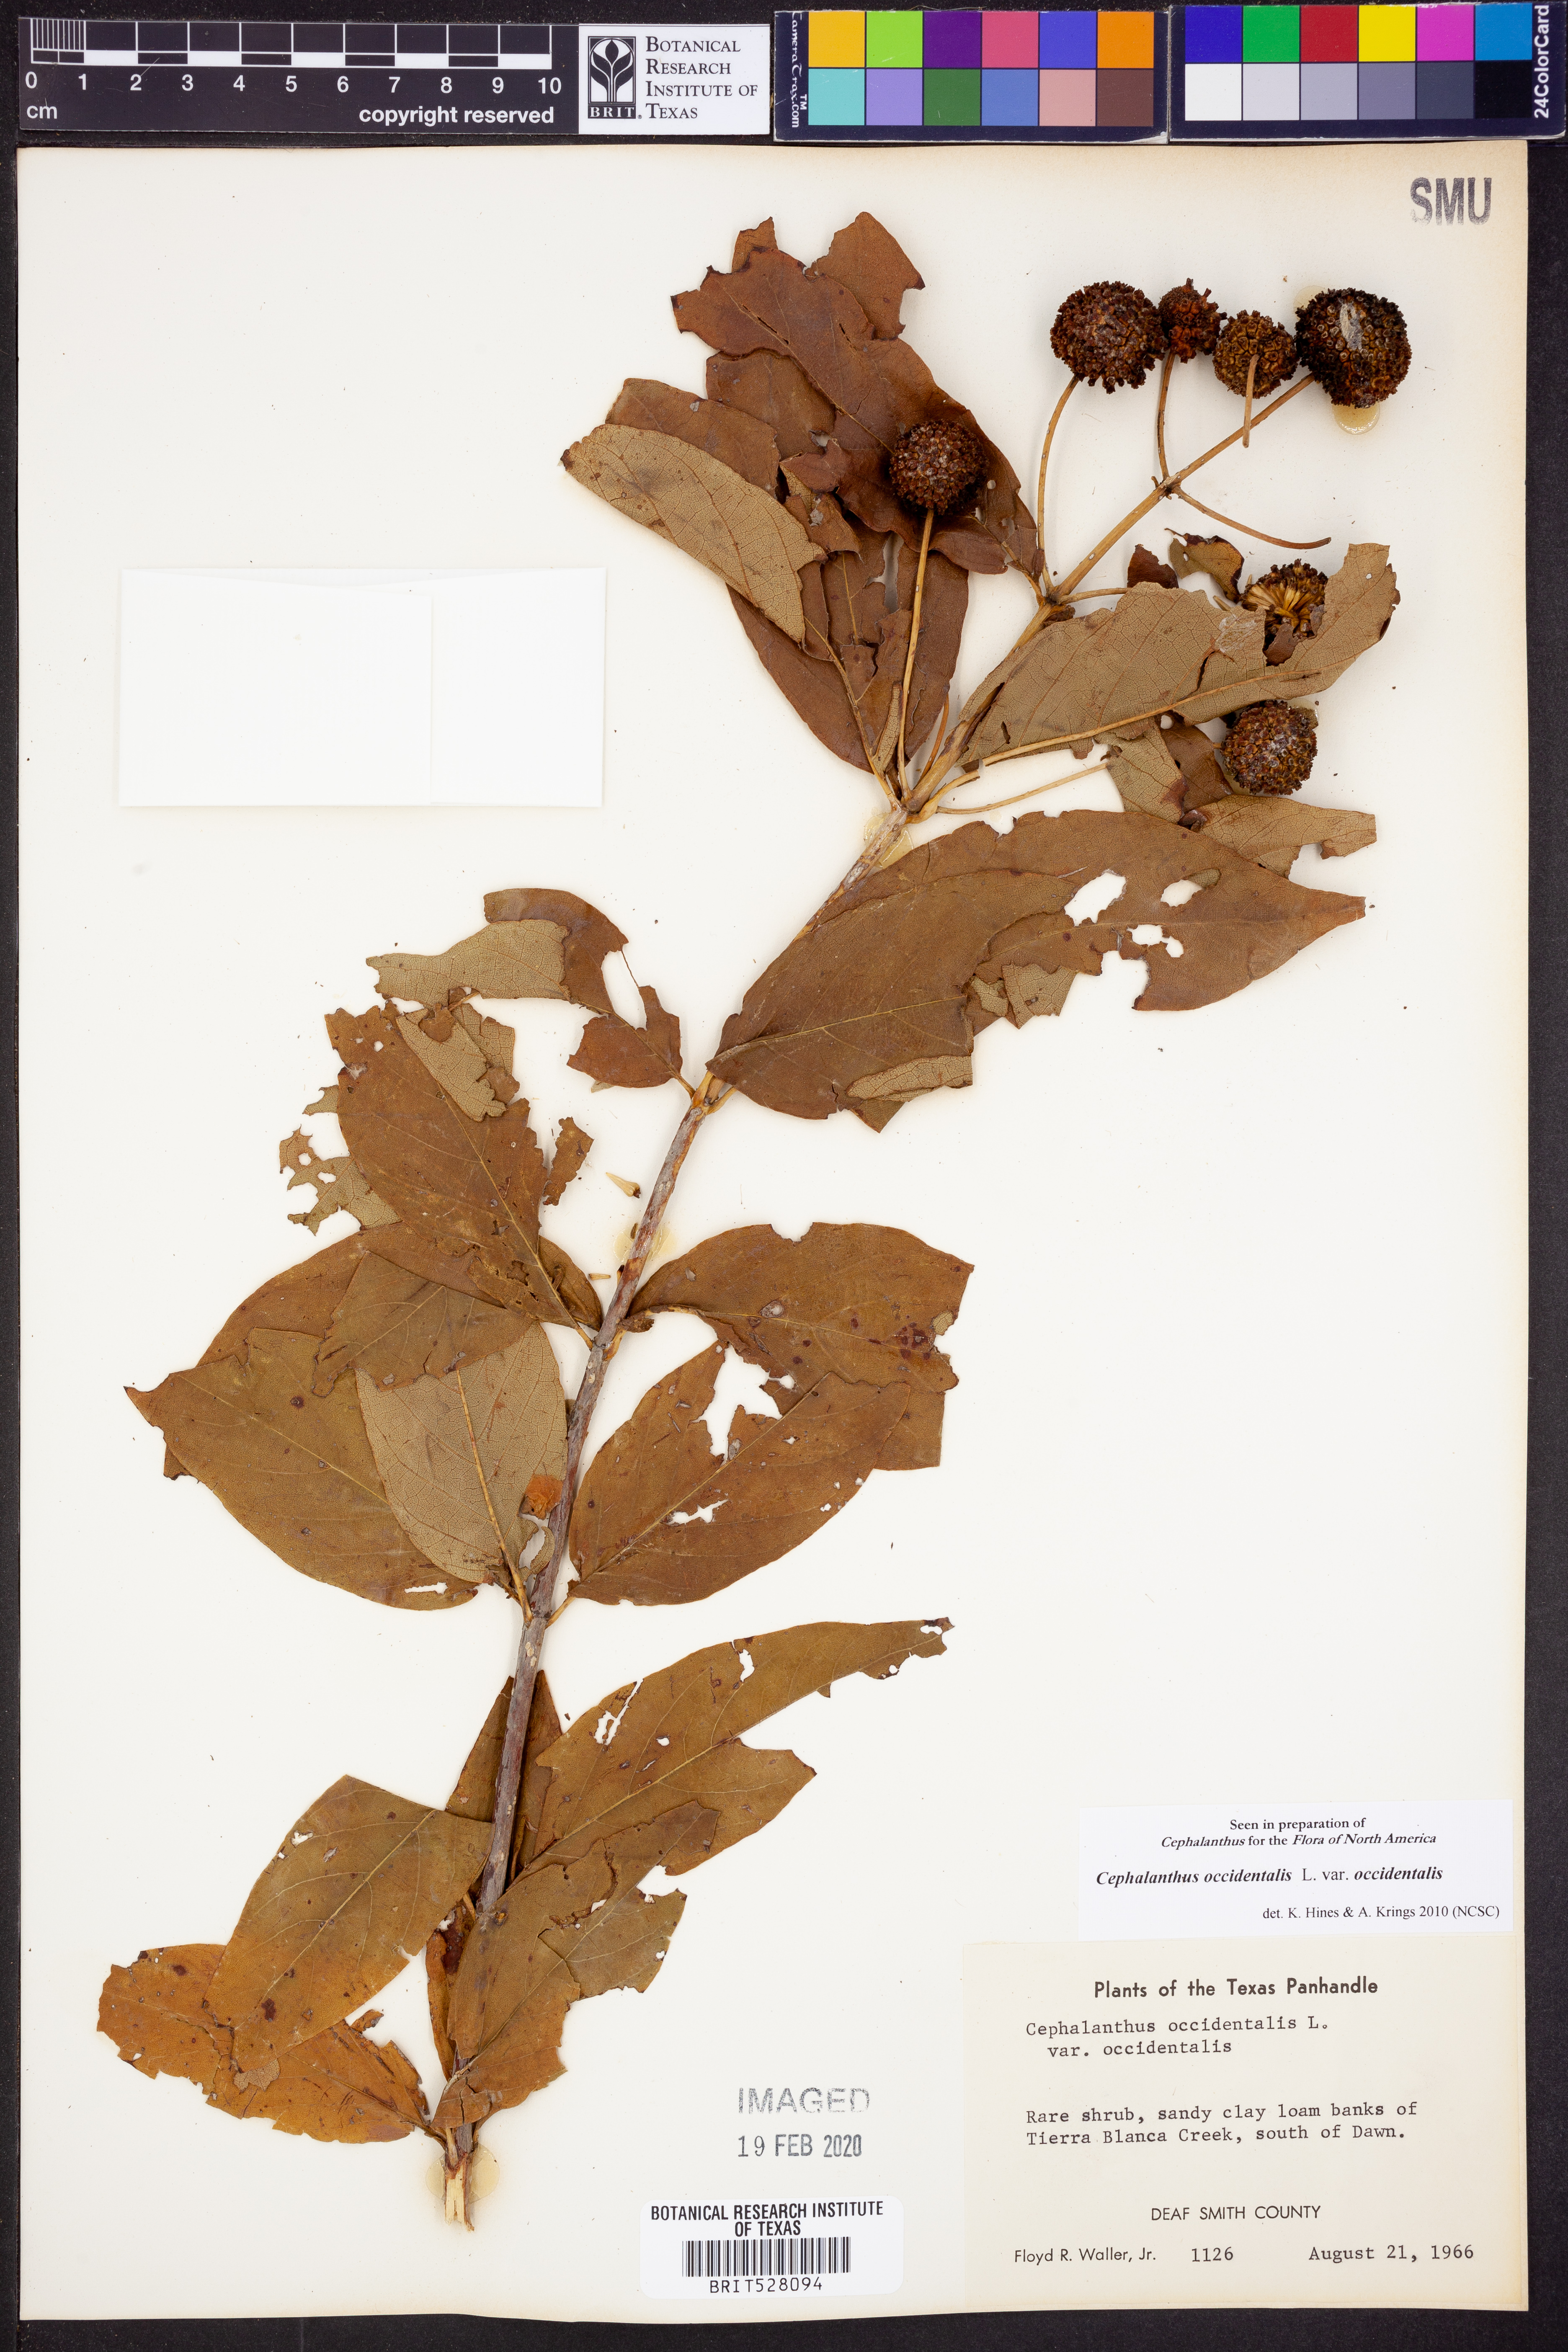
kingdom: Plantae
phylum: Tracheophyta
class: Magnoliopsida
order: Gentianales
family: Rubiaceae
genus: Cephalanthus
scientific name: Cephalanthus occidentalis
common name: Button-willow
